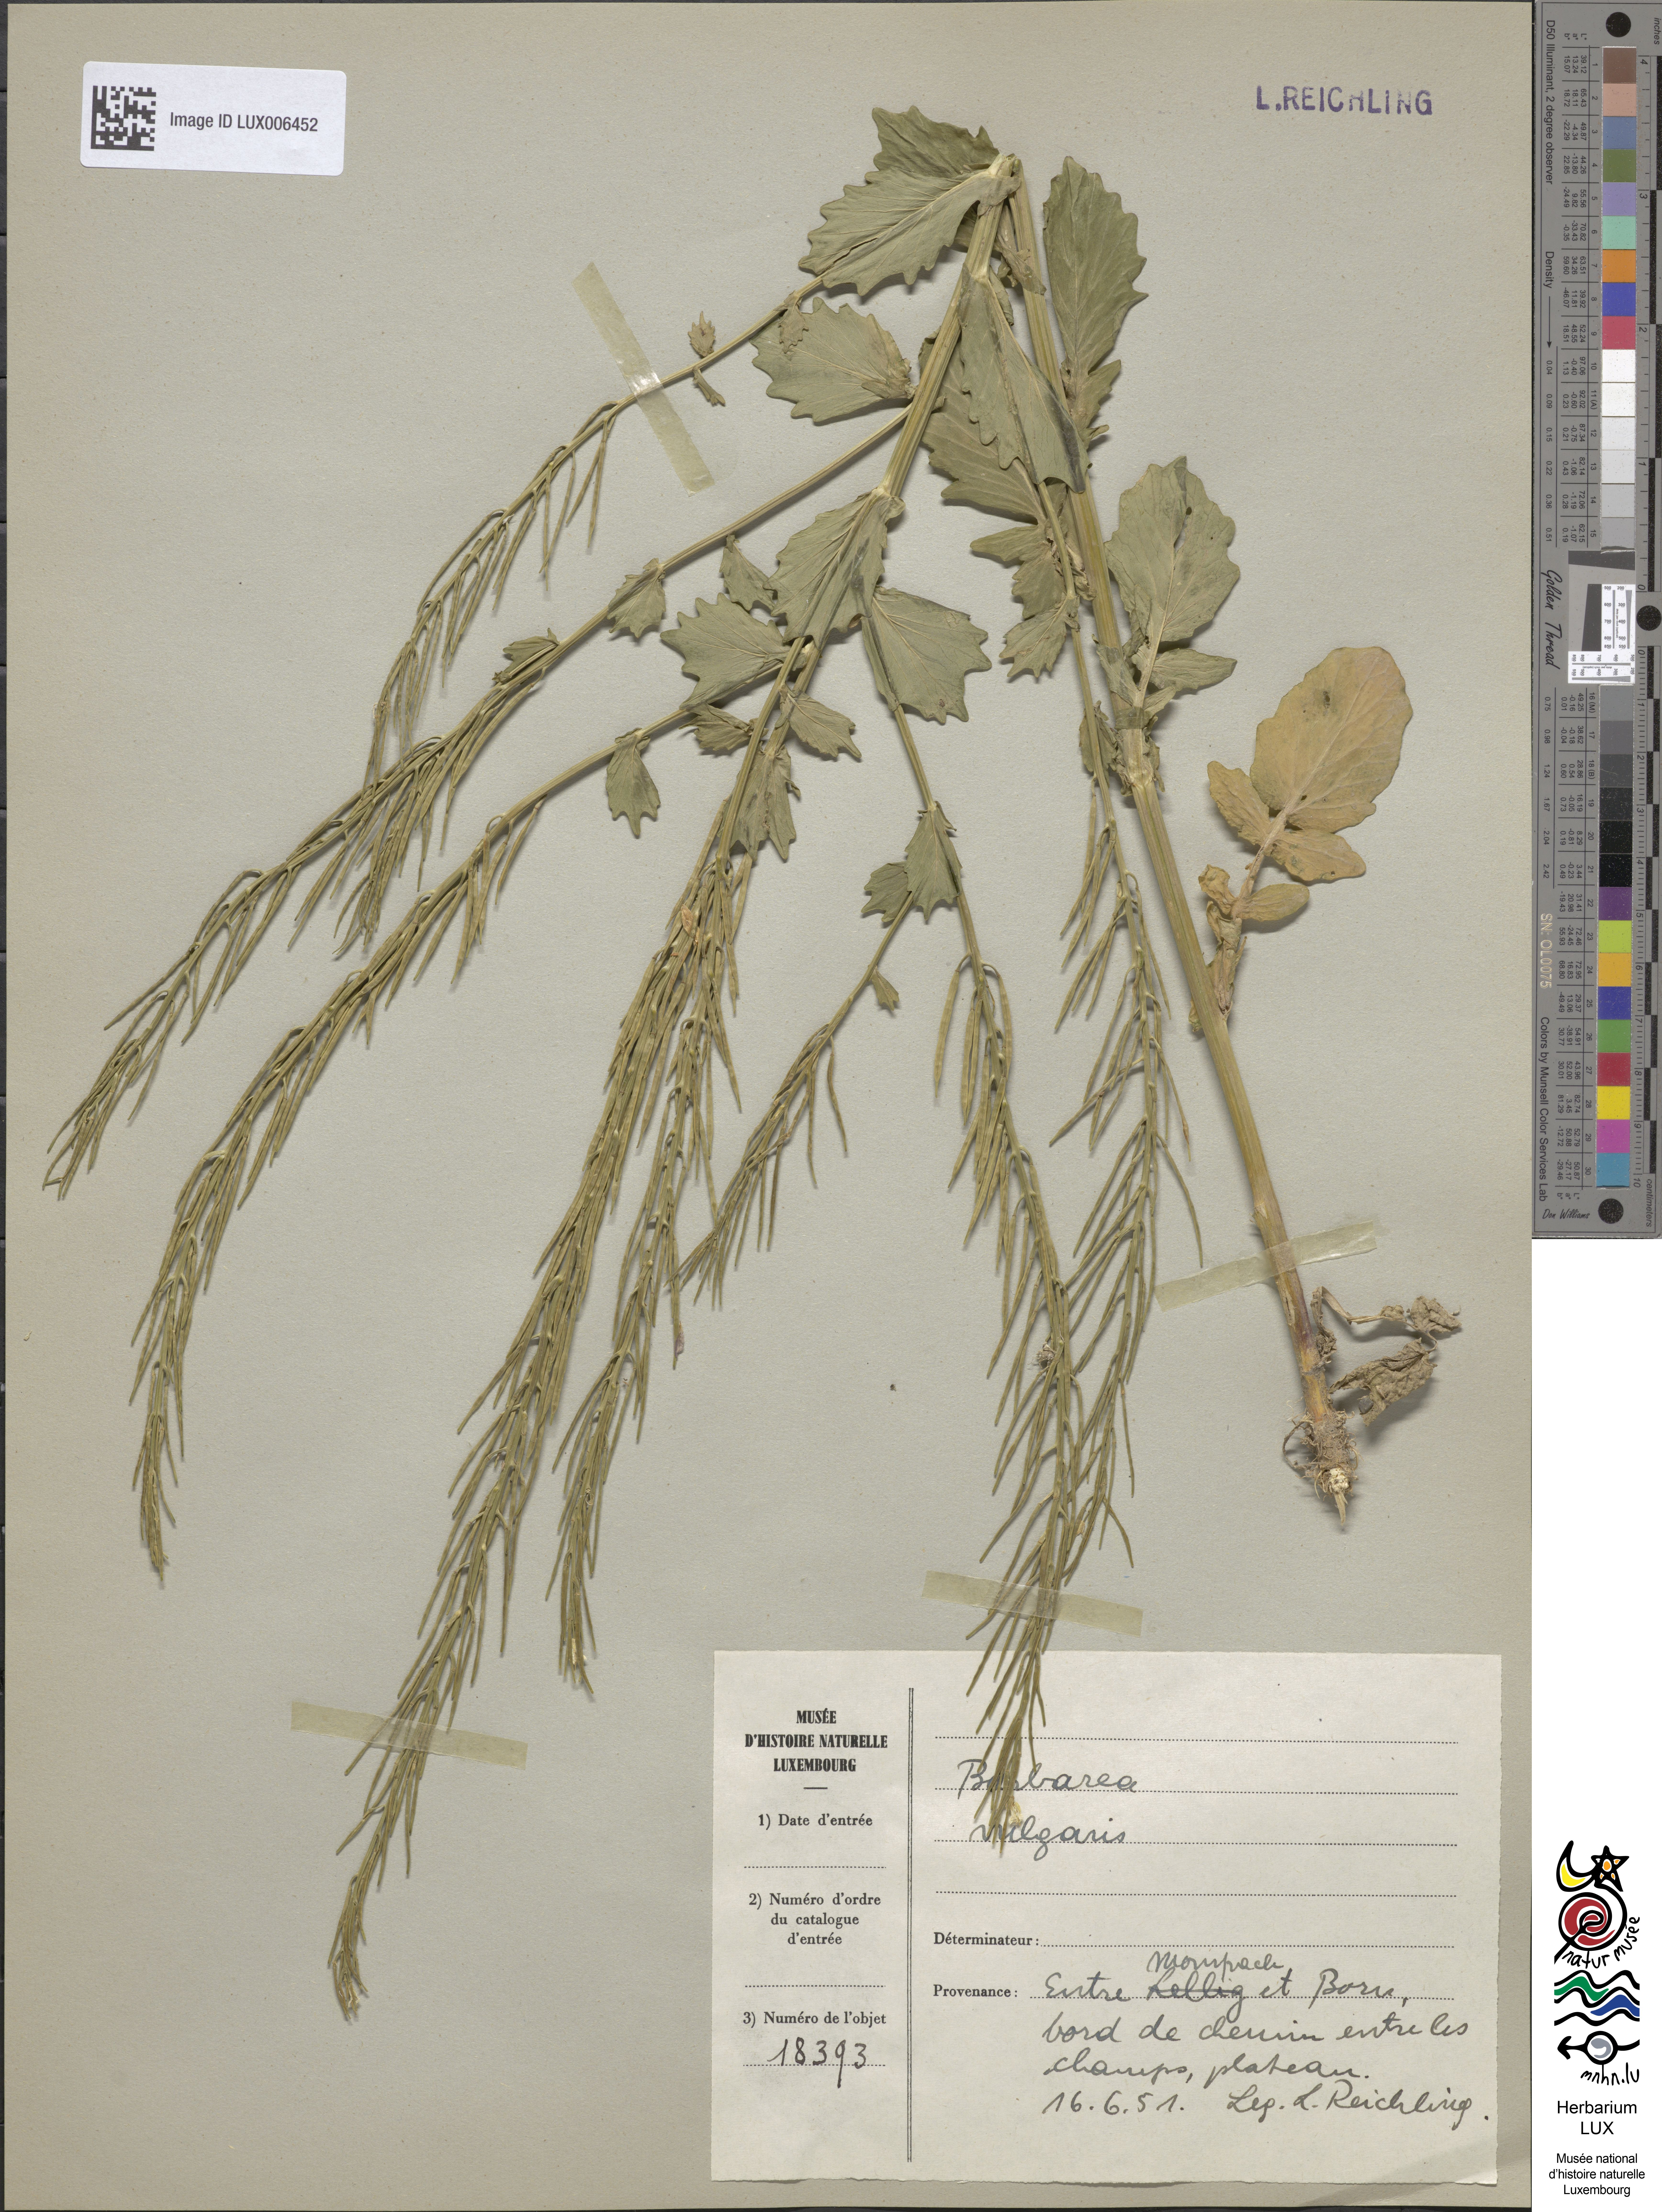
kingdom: Plantae
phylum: Tracheophyta
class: Magnoliopsida
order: Brassicales
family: Brassicaceae
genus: Barbarea
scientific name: Barbarea vulgaris
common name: Cressy-greens
